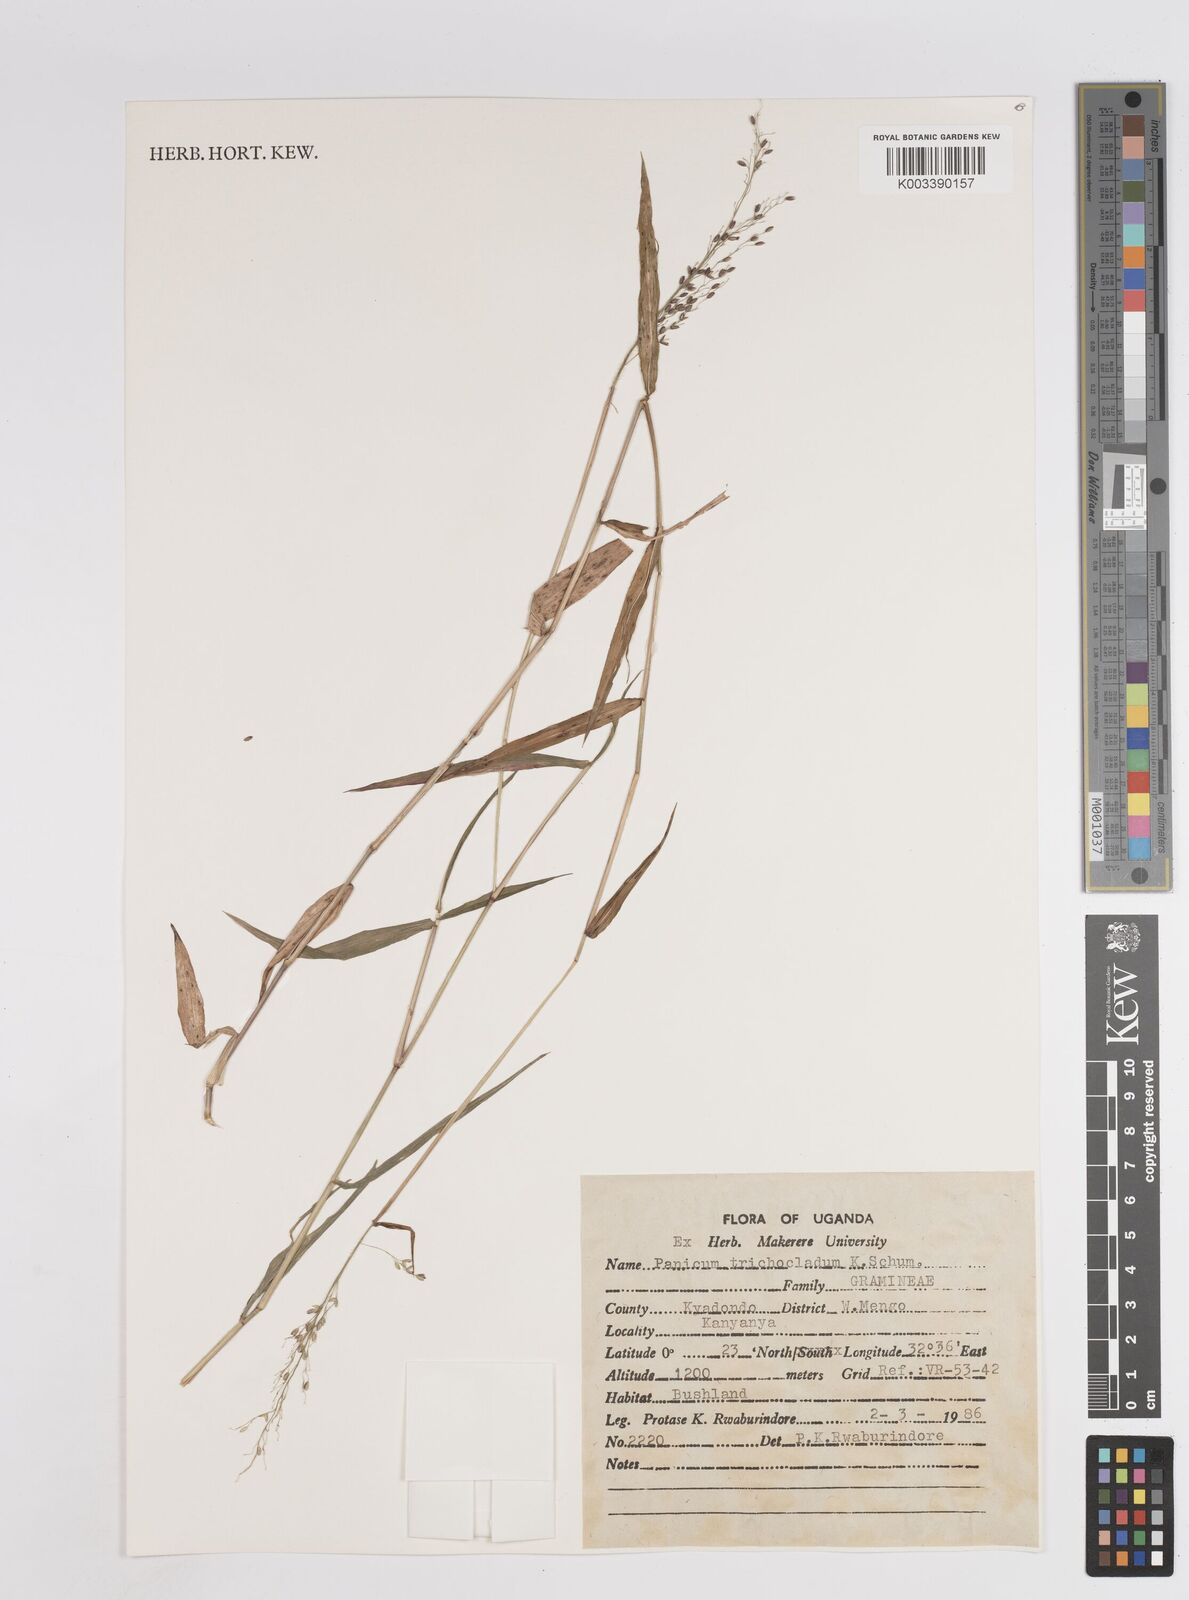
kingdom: Plantae
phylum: Tracheophyta
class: Liliopsida
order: Poales
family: Poaceae
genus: Megathyrsus
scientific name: Megathyrsus maximus
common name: Guineagrass
